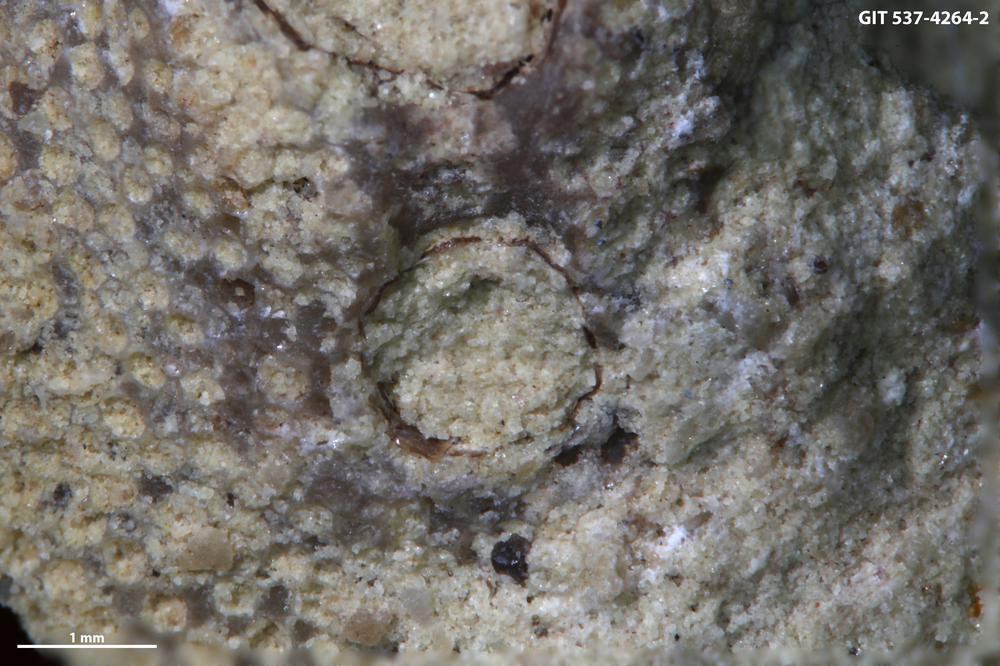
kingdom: Animalia
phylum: Cnidaria
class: Scyphozoa
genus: Climacoconus
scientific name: Climacoconus
